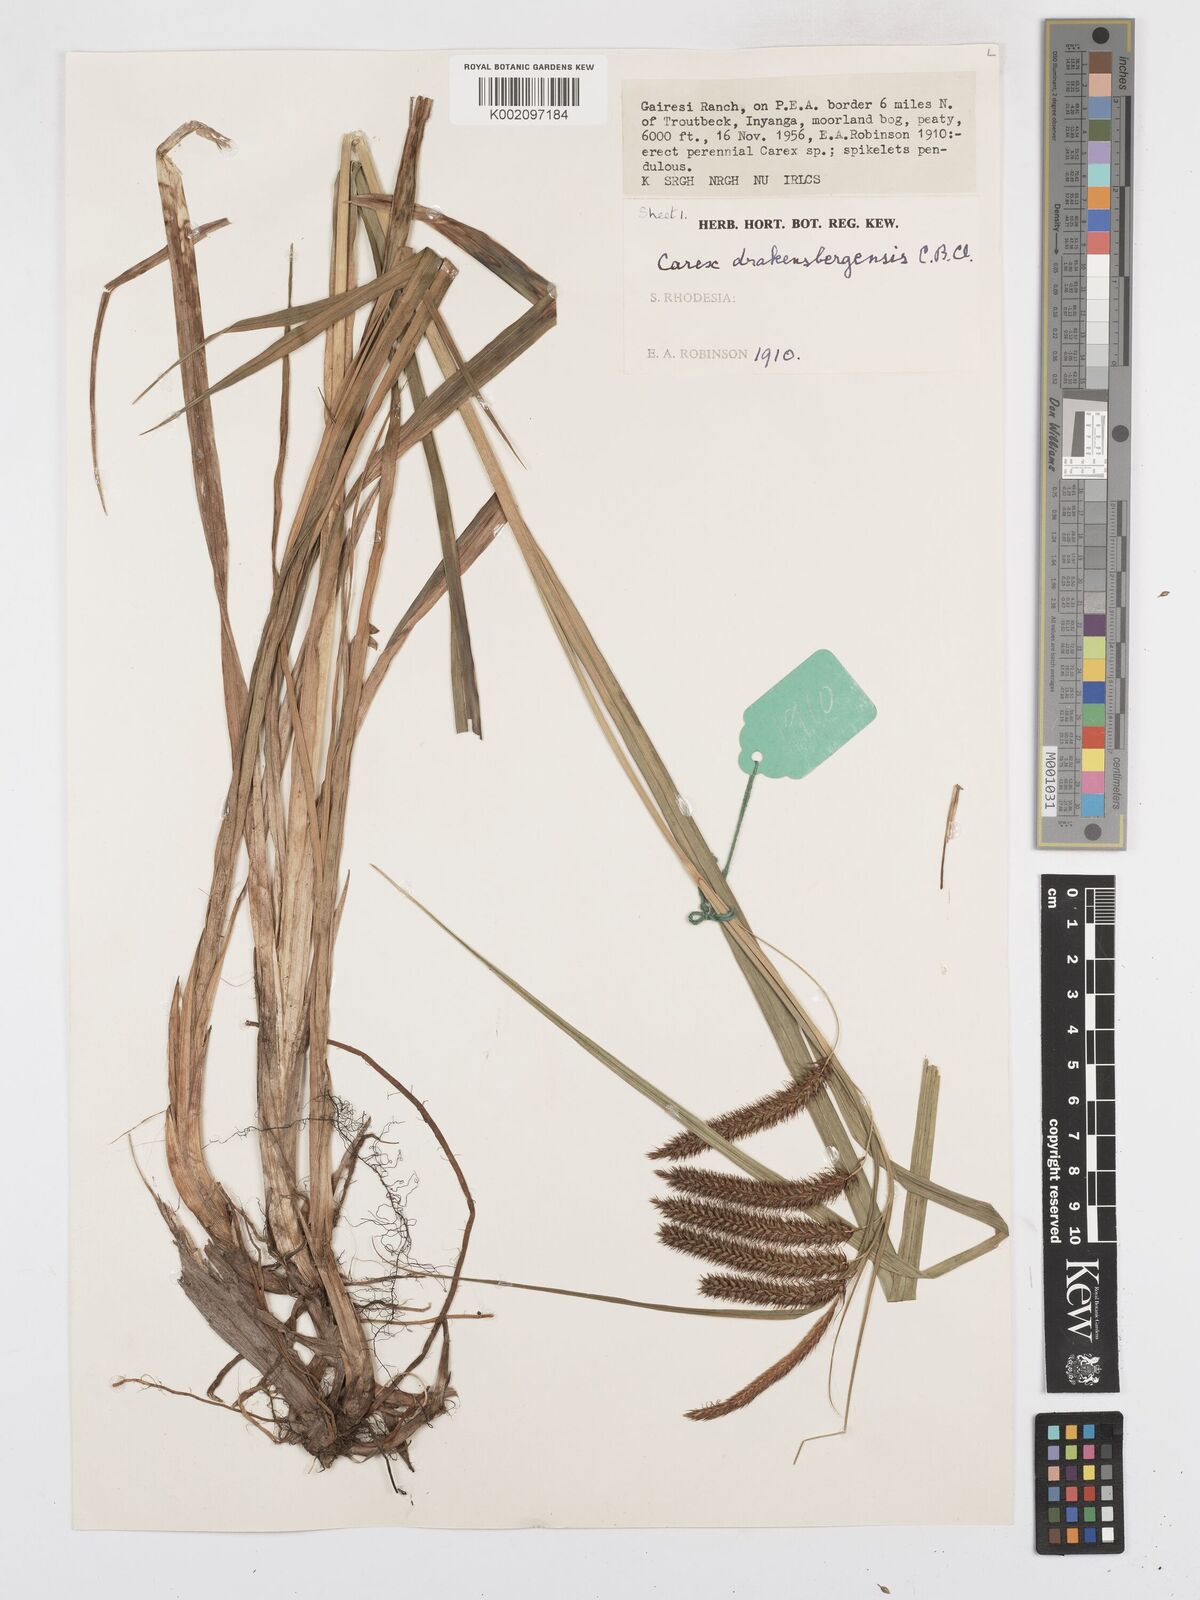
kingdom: Plantae
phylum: Tracheophyta
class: Liliopsida
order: Poales
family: Cyperaceae
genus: Carex
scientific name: Carex cognata
